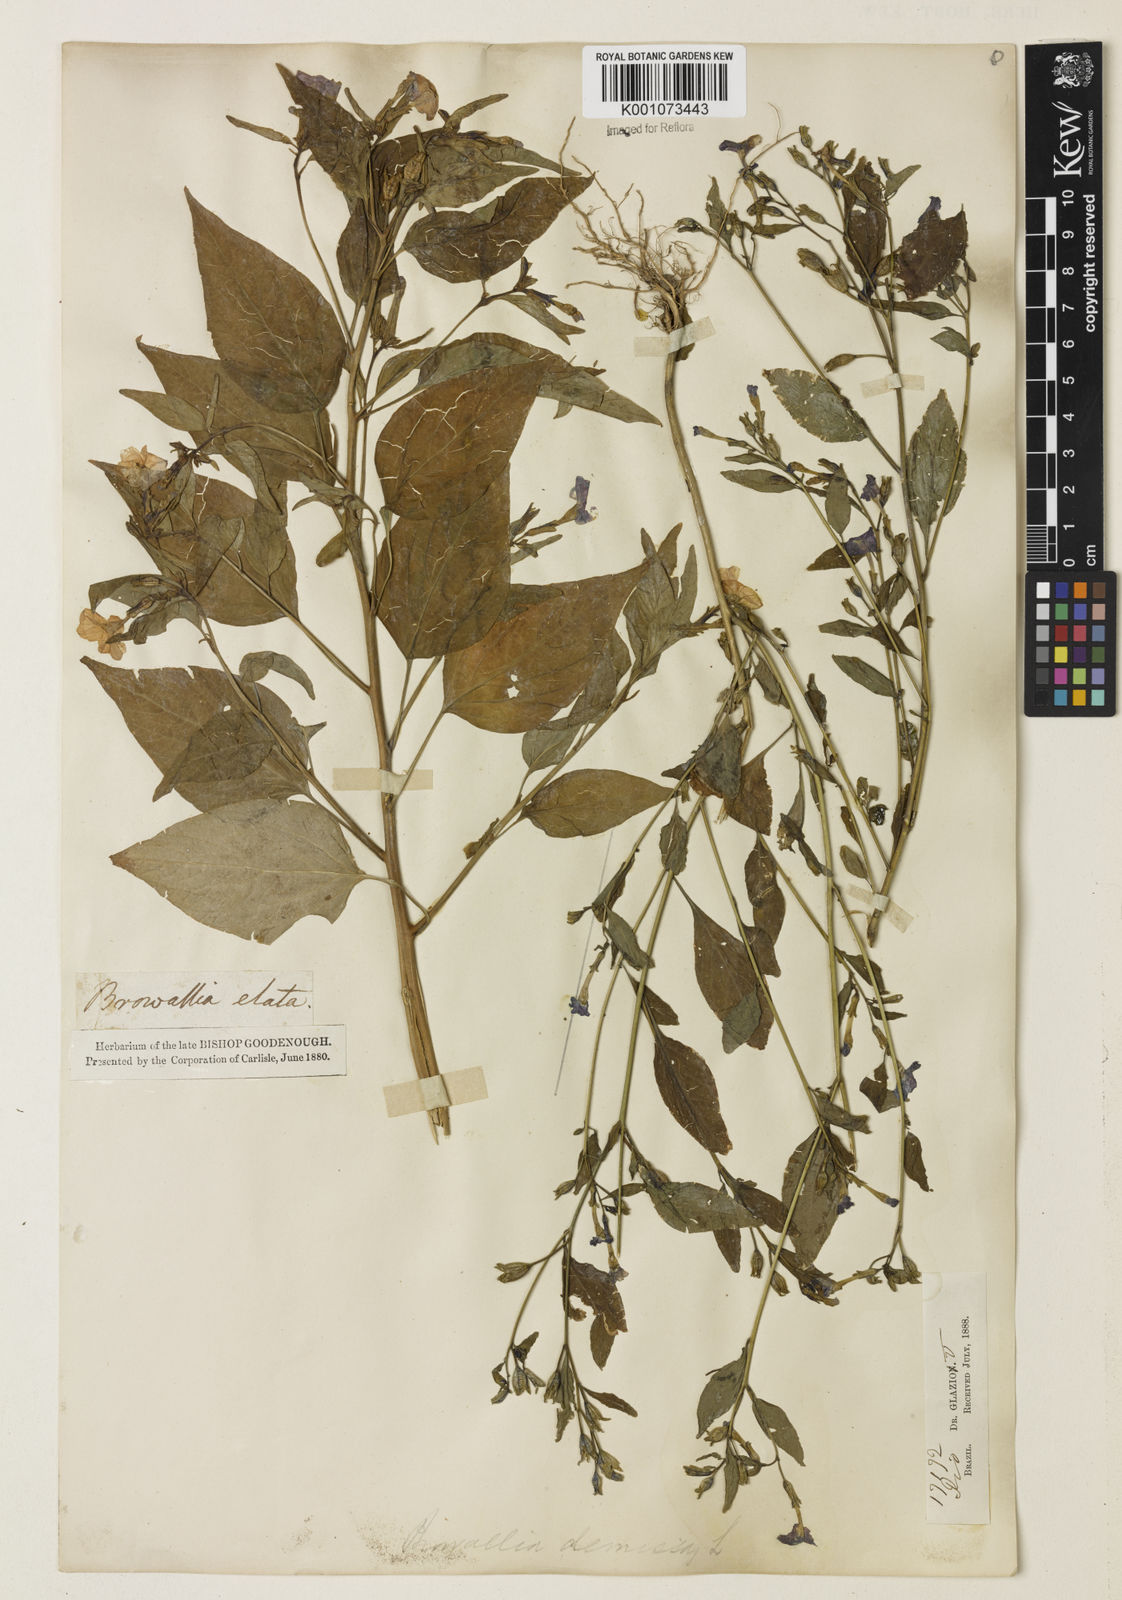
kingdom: Plantae
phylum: Tracheophyta
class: Magnoliopsida
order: Solanales
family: Solanaceae
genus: Browallia
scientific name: Browallia americana
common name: Jamaican forget-me-not
